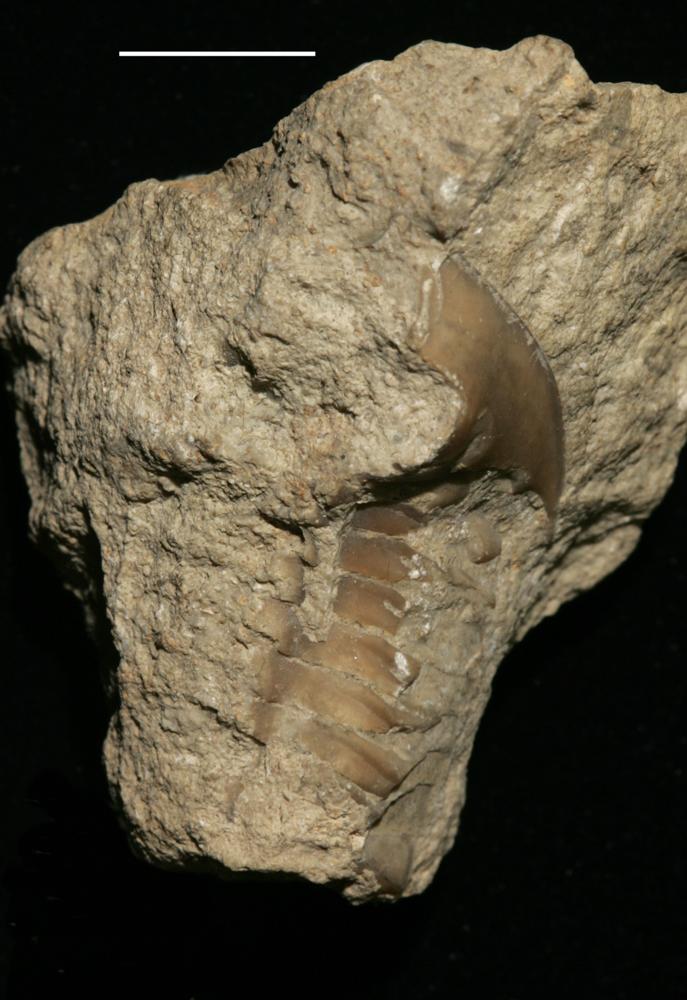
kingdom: Animalia
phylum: Arthropoda
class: Trilobita
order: Asaphida
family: Asaphidae
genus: Asaphus
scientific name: Asaphus platyurus
